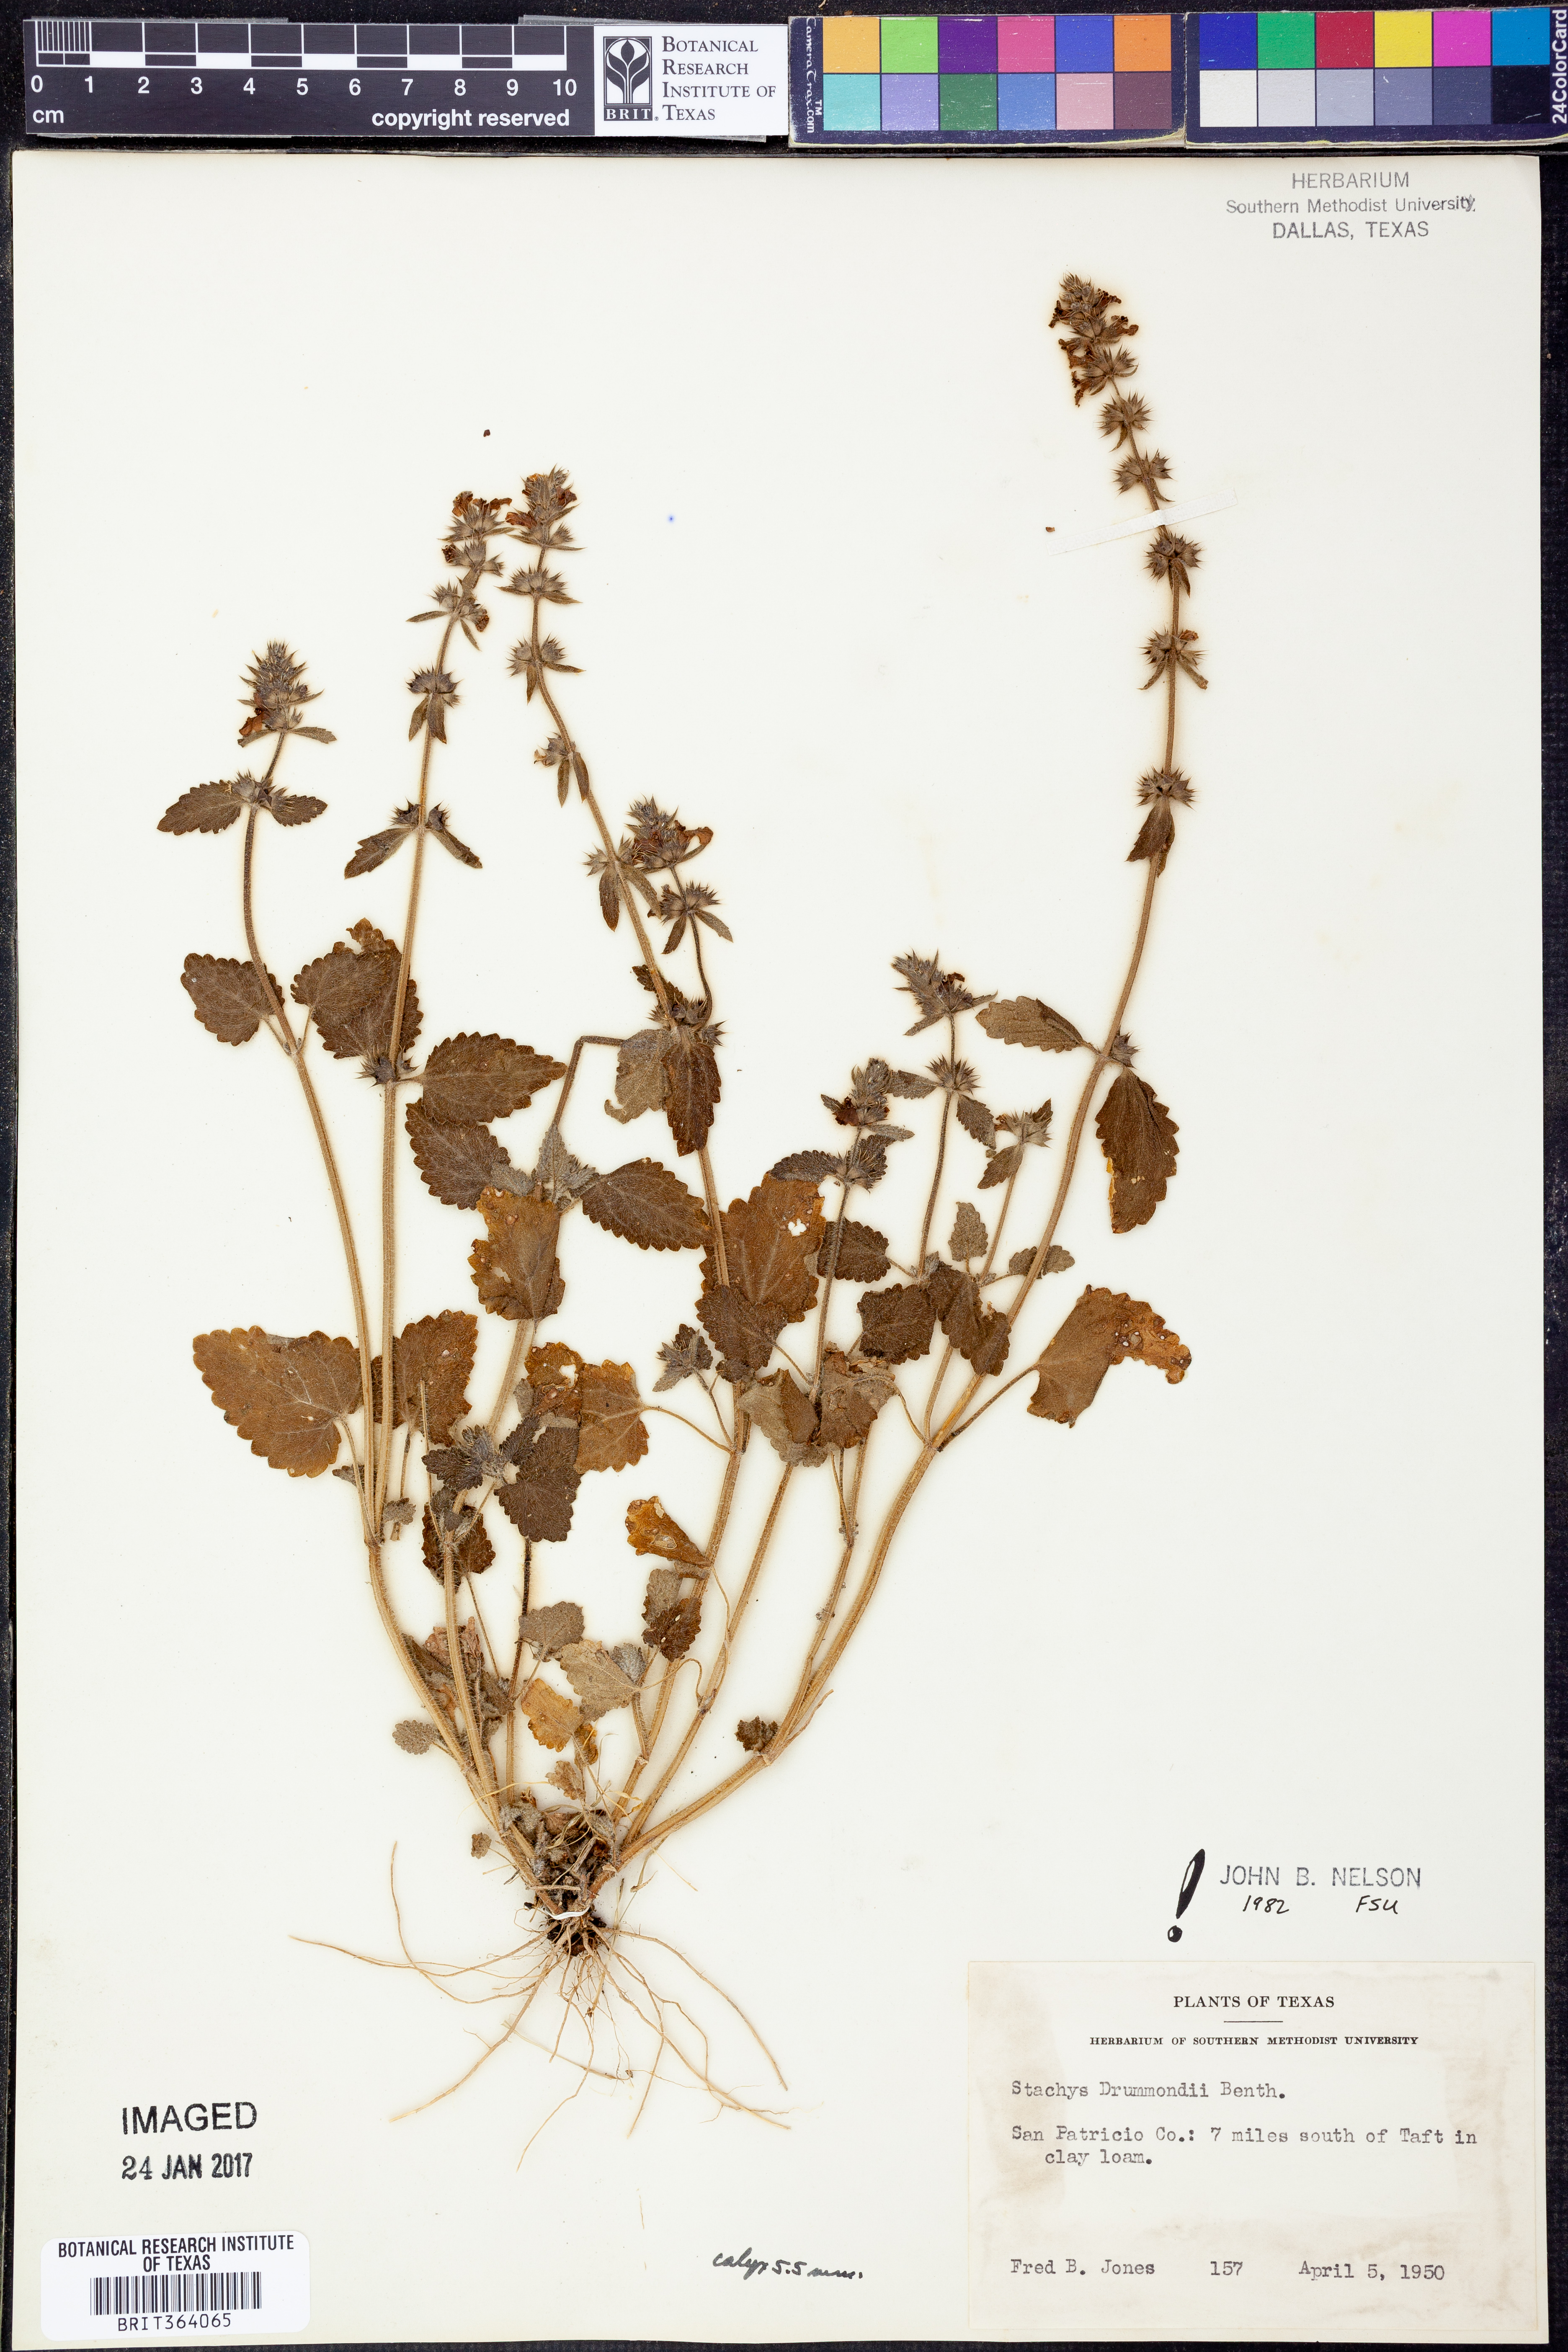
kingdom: Plantae
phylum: Tracheophyta
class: Magnoliopsida
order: Lamiales
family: Lamiaceae
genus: Stachys
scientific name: Stachys drummondii
